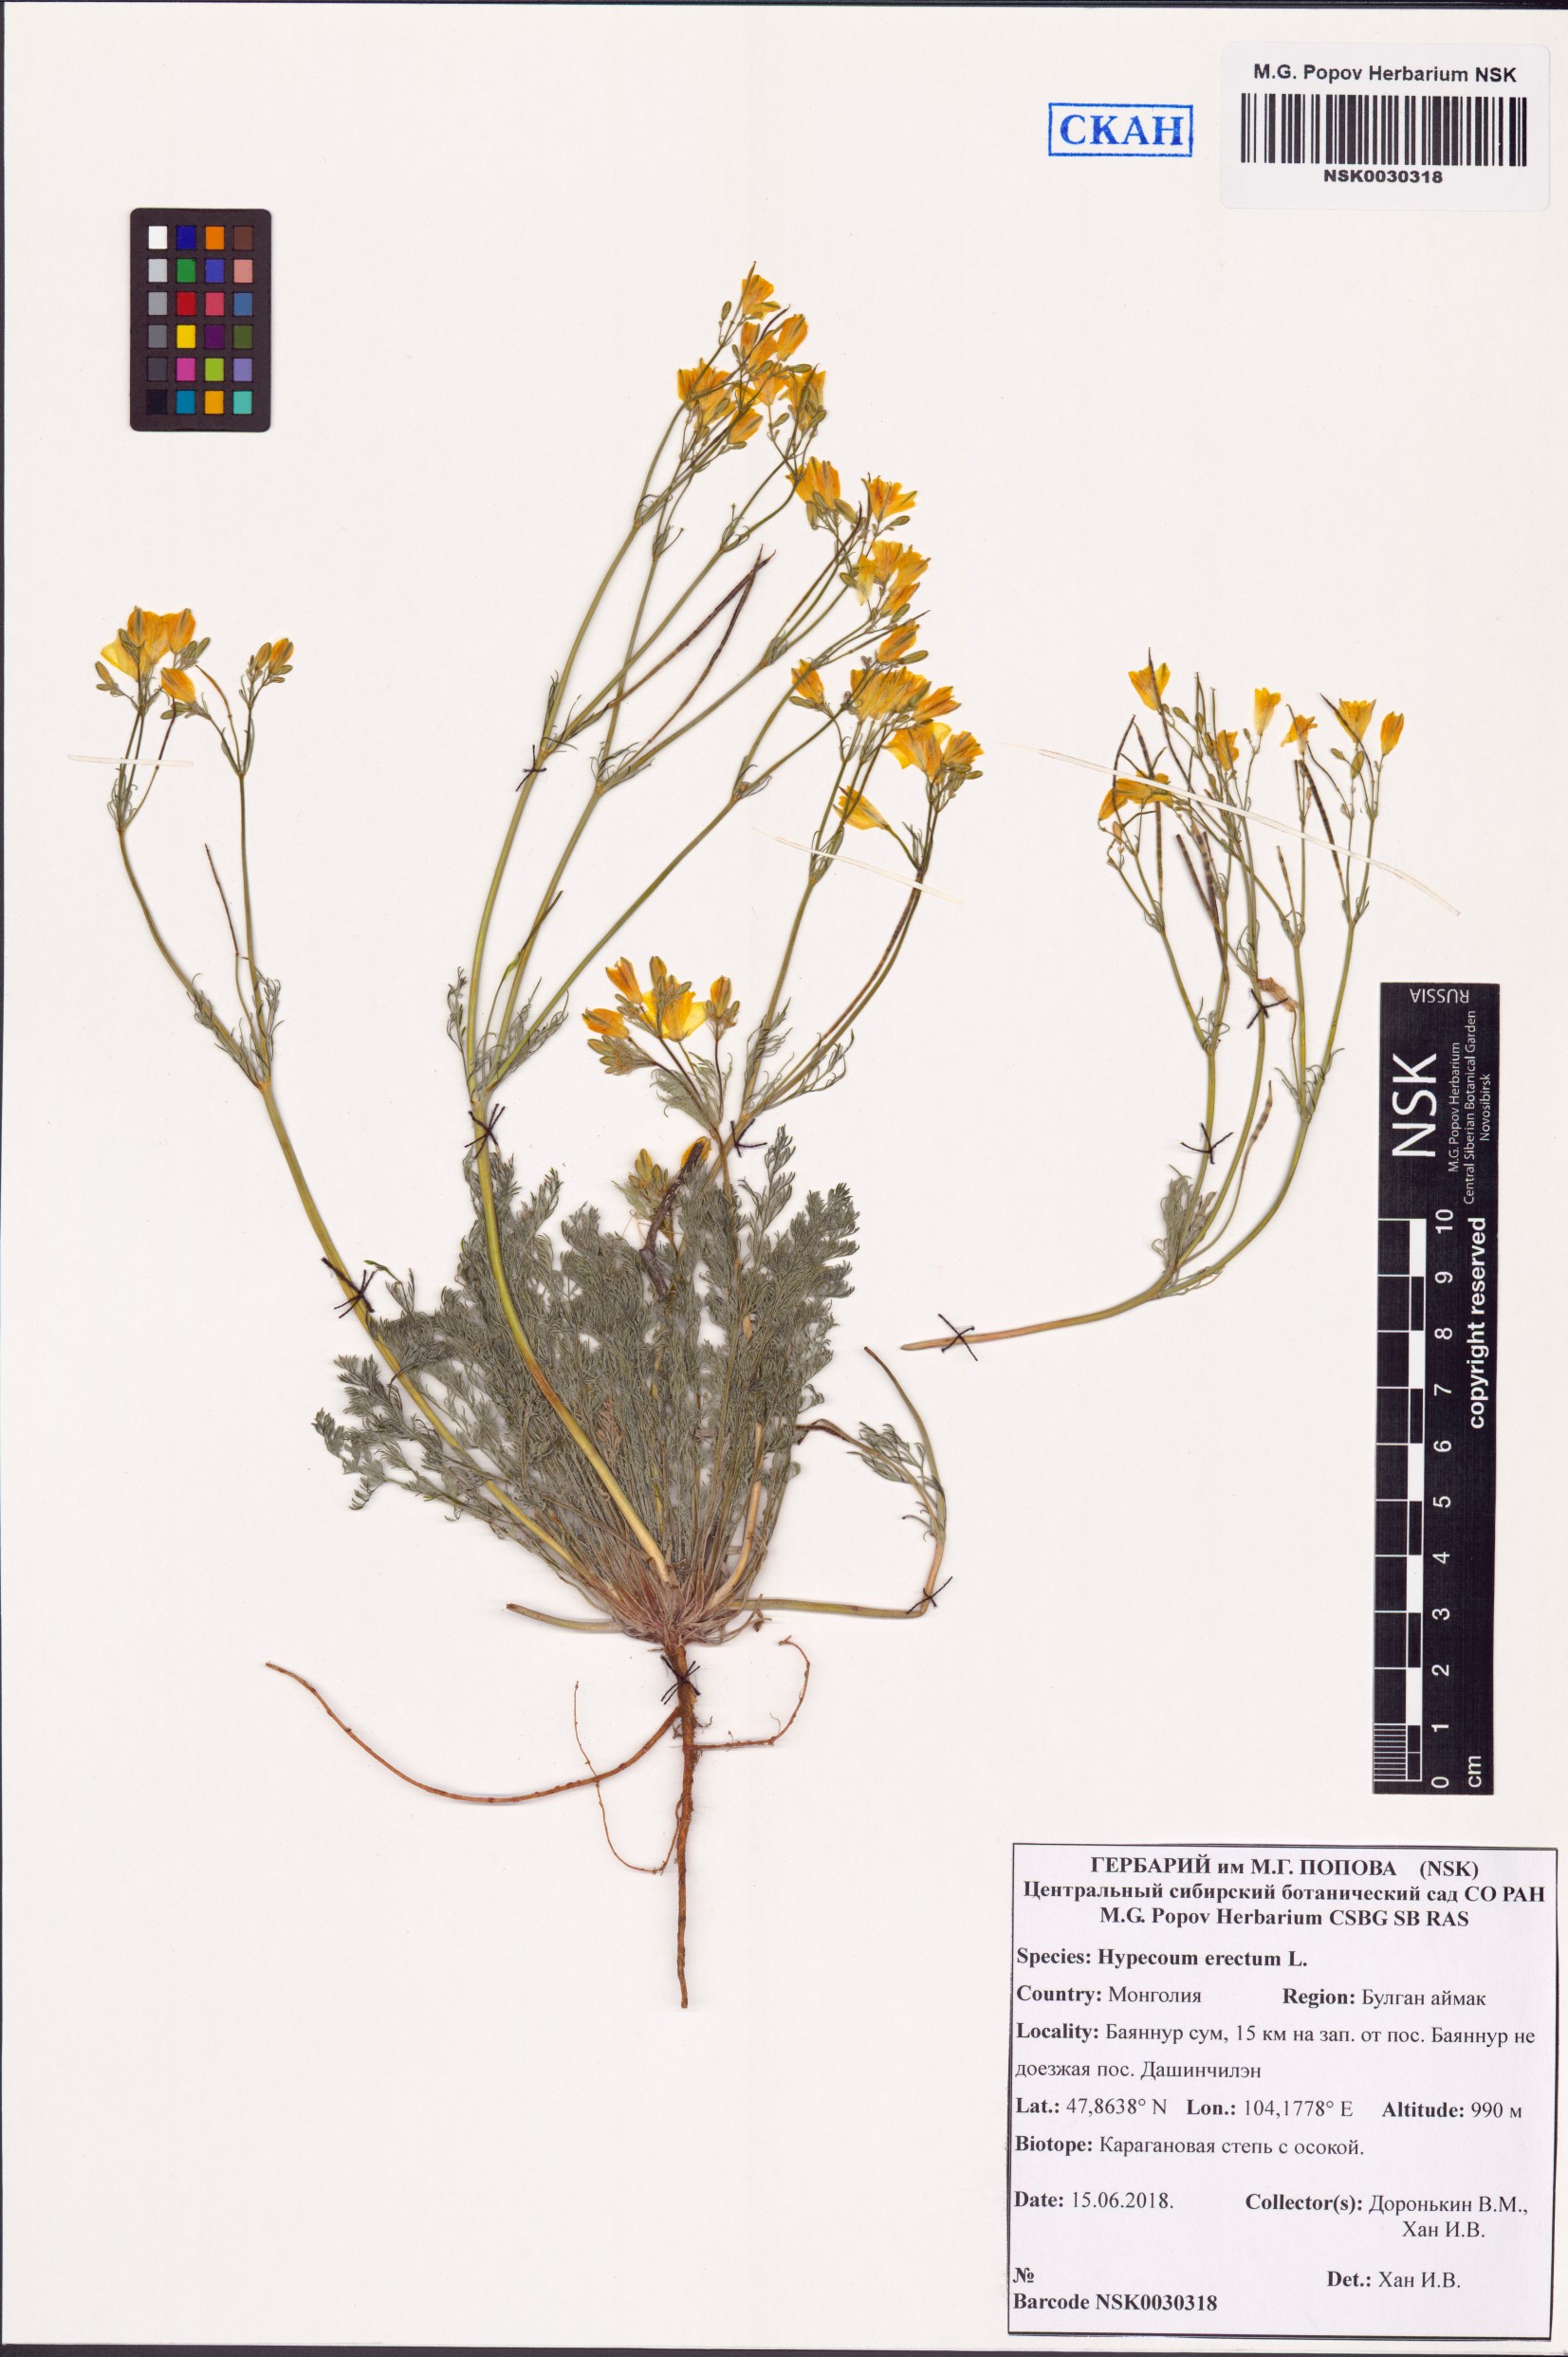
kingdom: Plantae
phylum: Tracheophyta
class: Magnoliopsida
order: Ranunculales
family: Papaveraceae
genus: Hypecoum
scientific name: Hypecoum erectum
